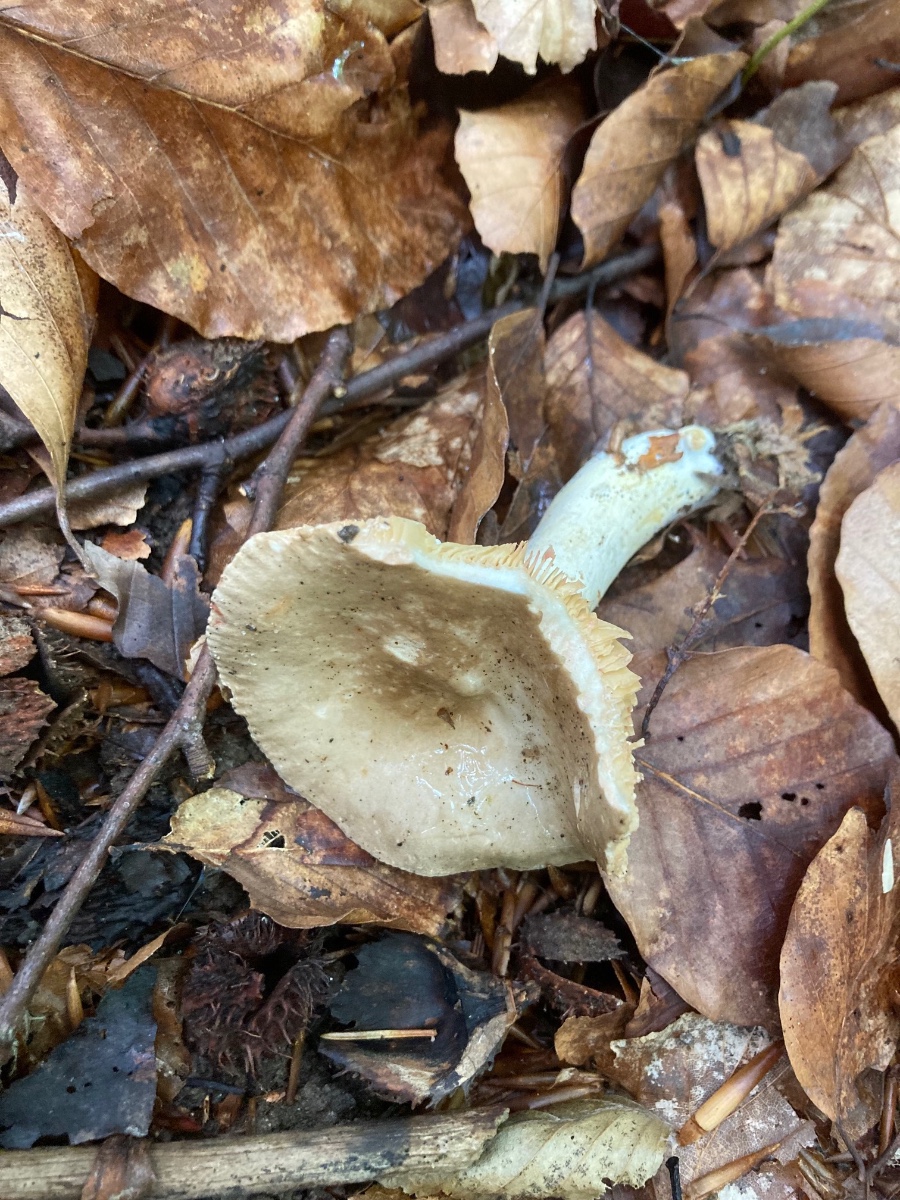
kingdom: Fungi
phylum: Basidiomycota
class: Agaricomycetes
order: Russulales
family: Russulaceae
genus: Lactarius
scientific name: Lactarius acris
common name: rosamælket mælkehat
